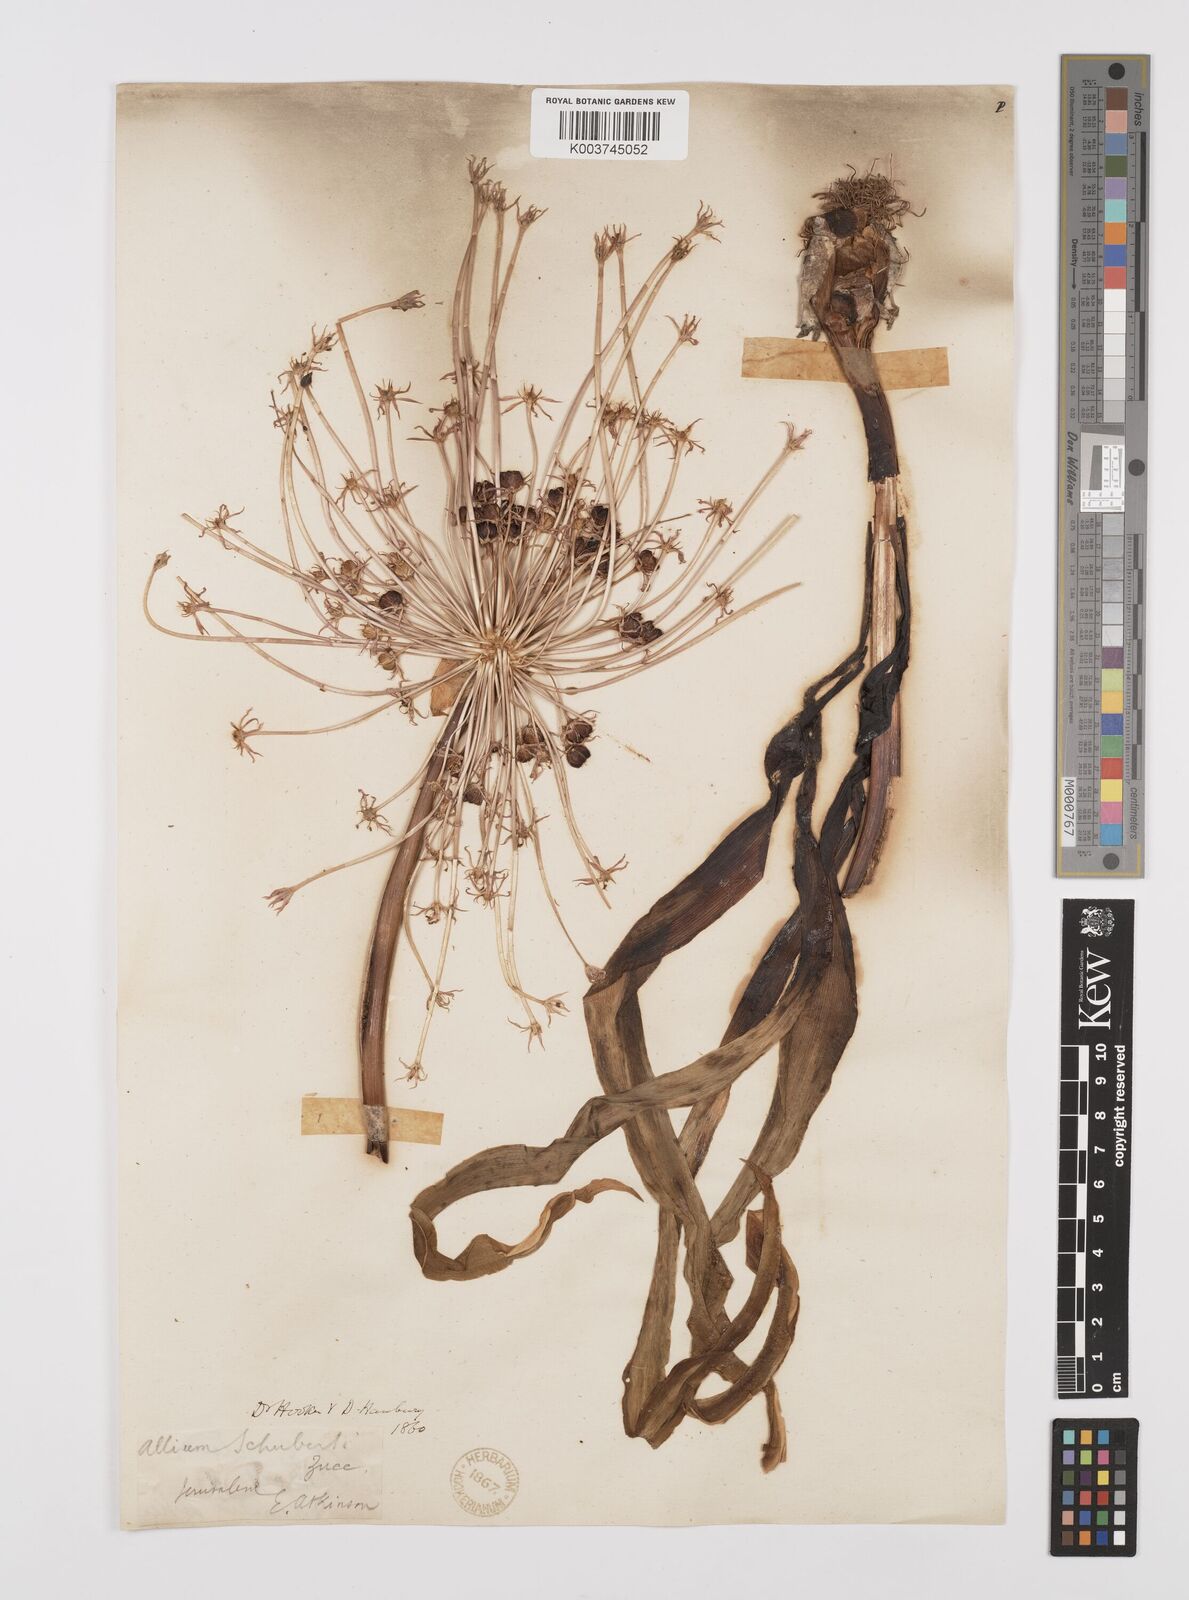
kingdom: Plantae
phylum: Tracheophyta
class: Liliopsida
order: Asparagales
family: Amaryllidaceae
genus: Allium
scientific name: Allium schubertii
